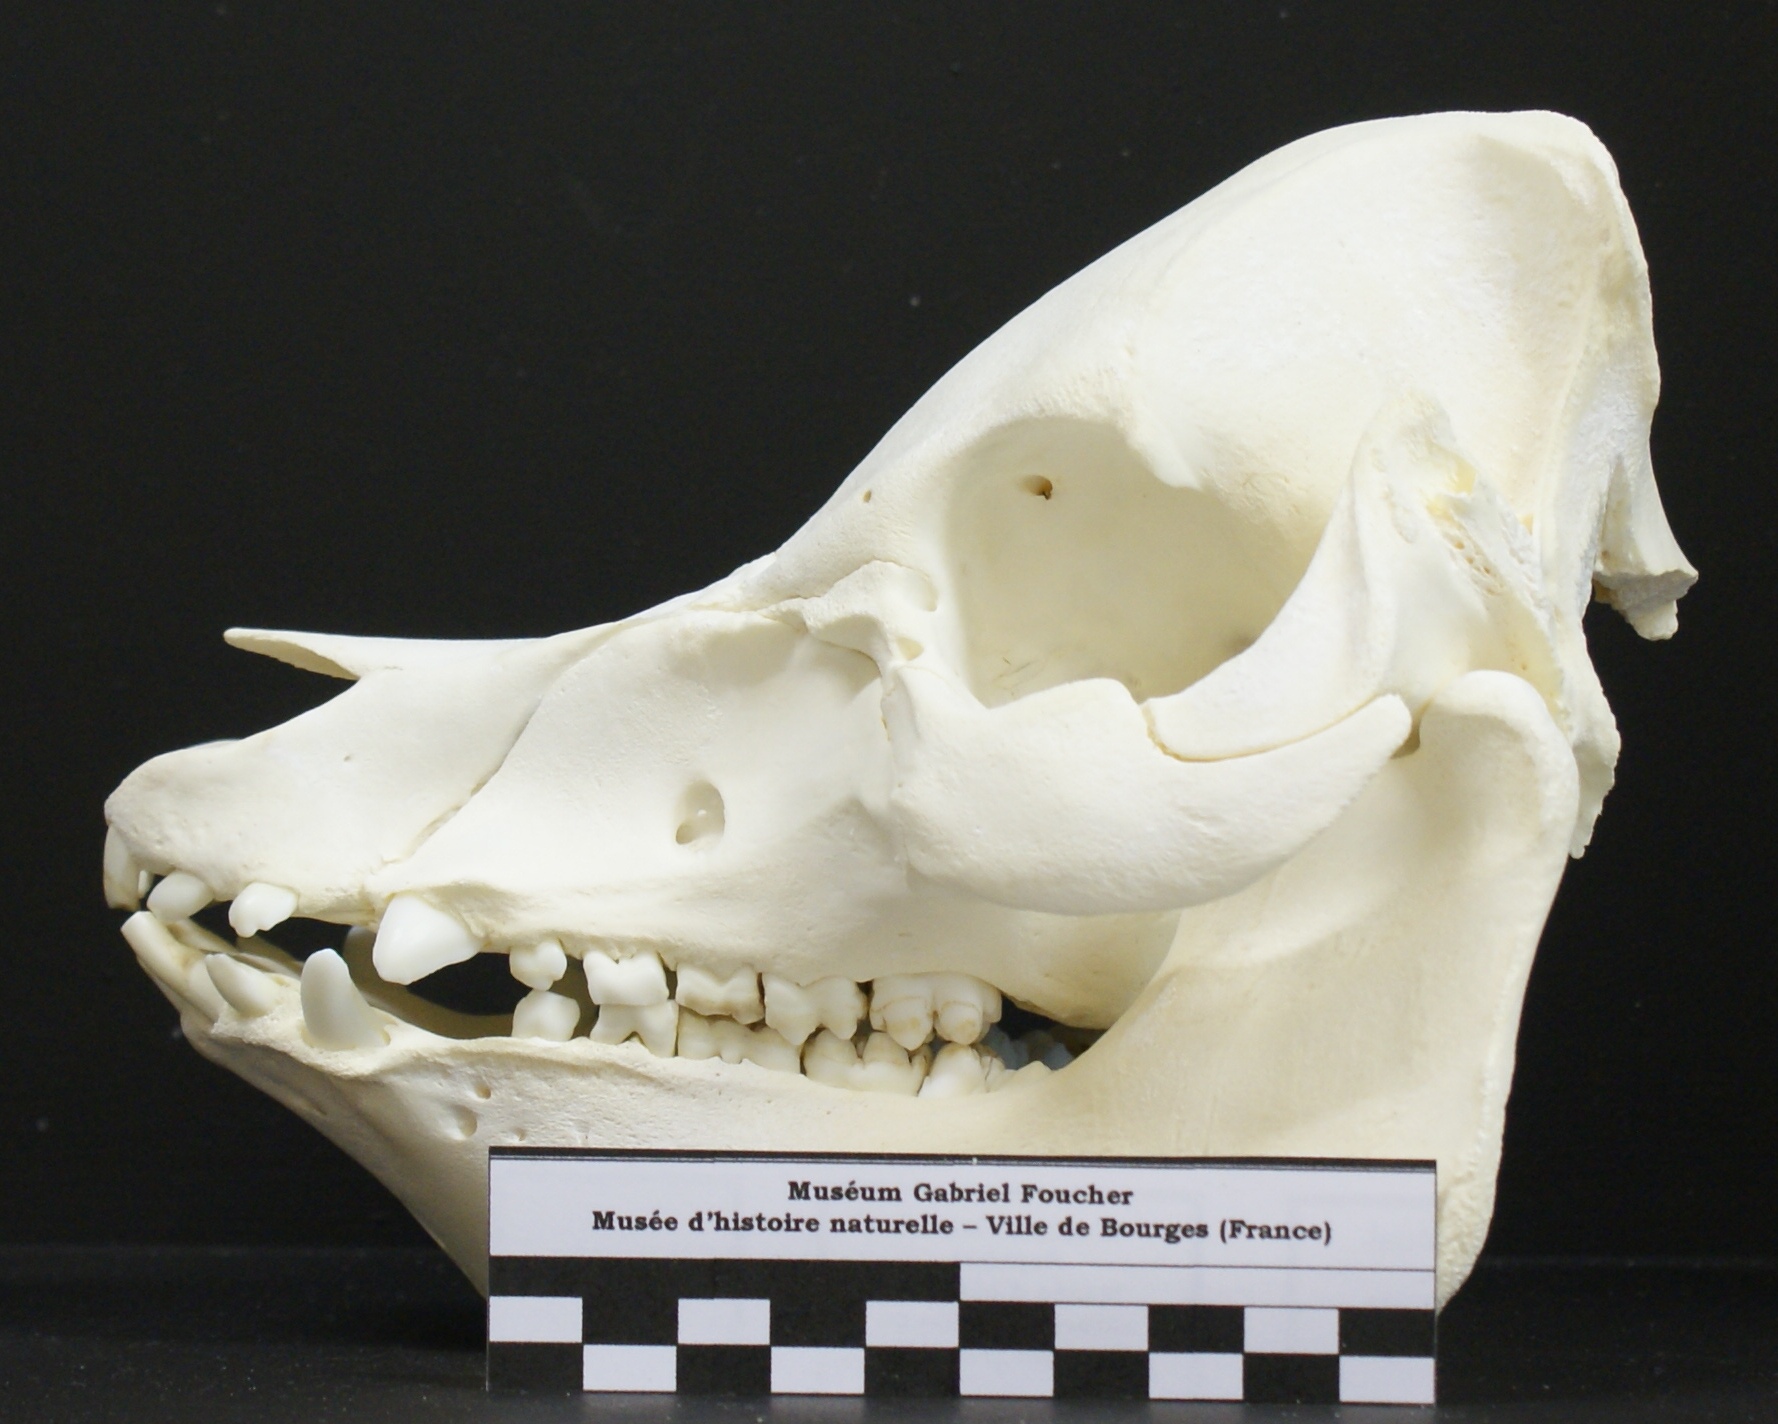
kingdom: Animalia
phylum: Chordata
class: Mammalia
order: Artiodactyla
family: Suidae
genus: Sus
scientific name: Sus scrofa
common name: Wild boar
